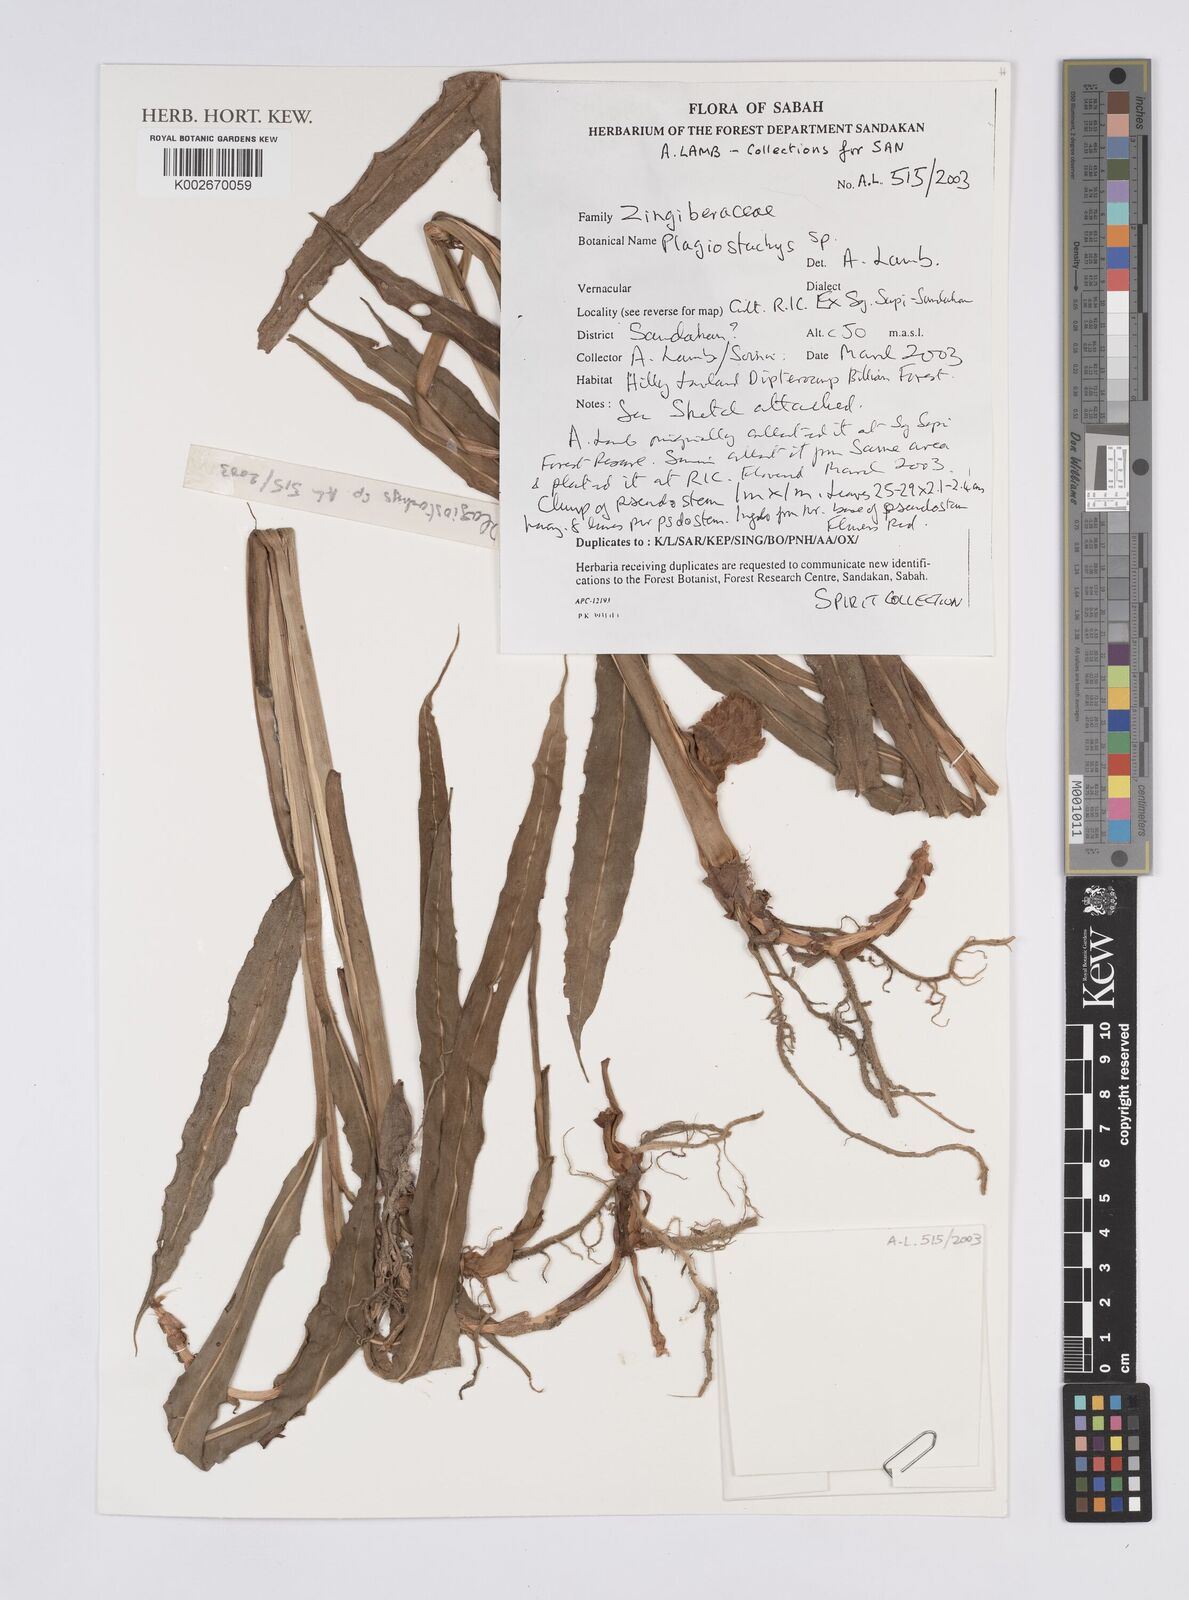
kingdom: Plantae
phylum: Tracheophyta
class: Liliopsida
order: Zingiberales
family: Zingiberaceae
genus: Plagiostachys
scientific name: Plagiostachys
